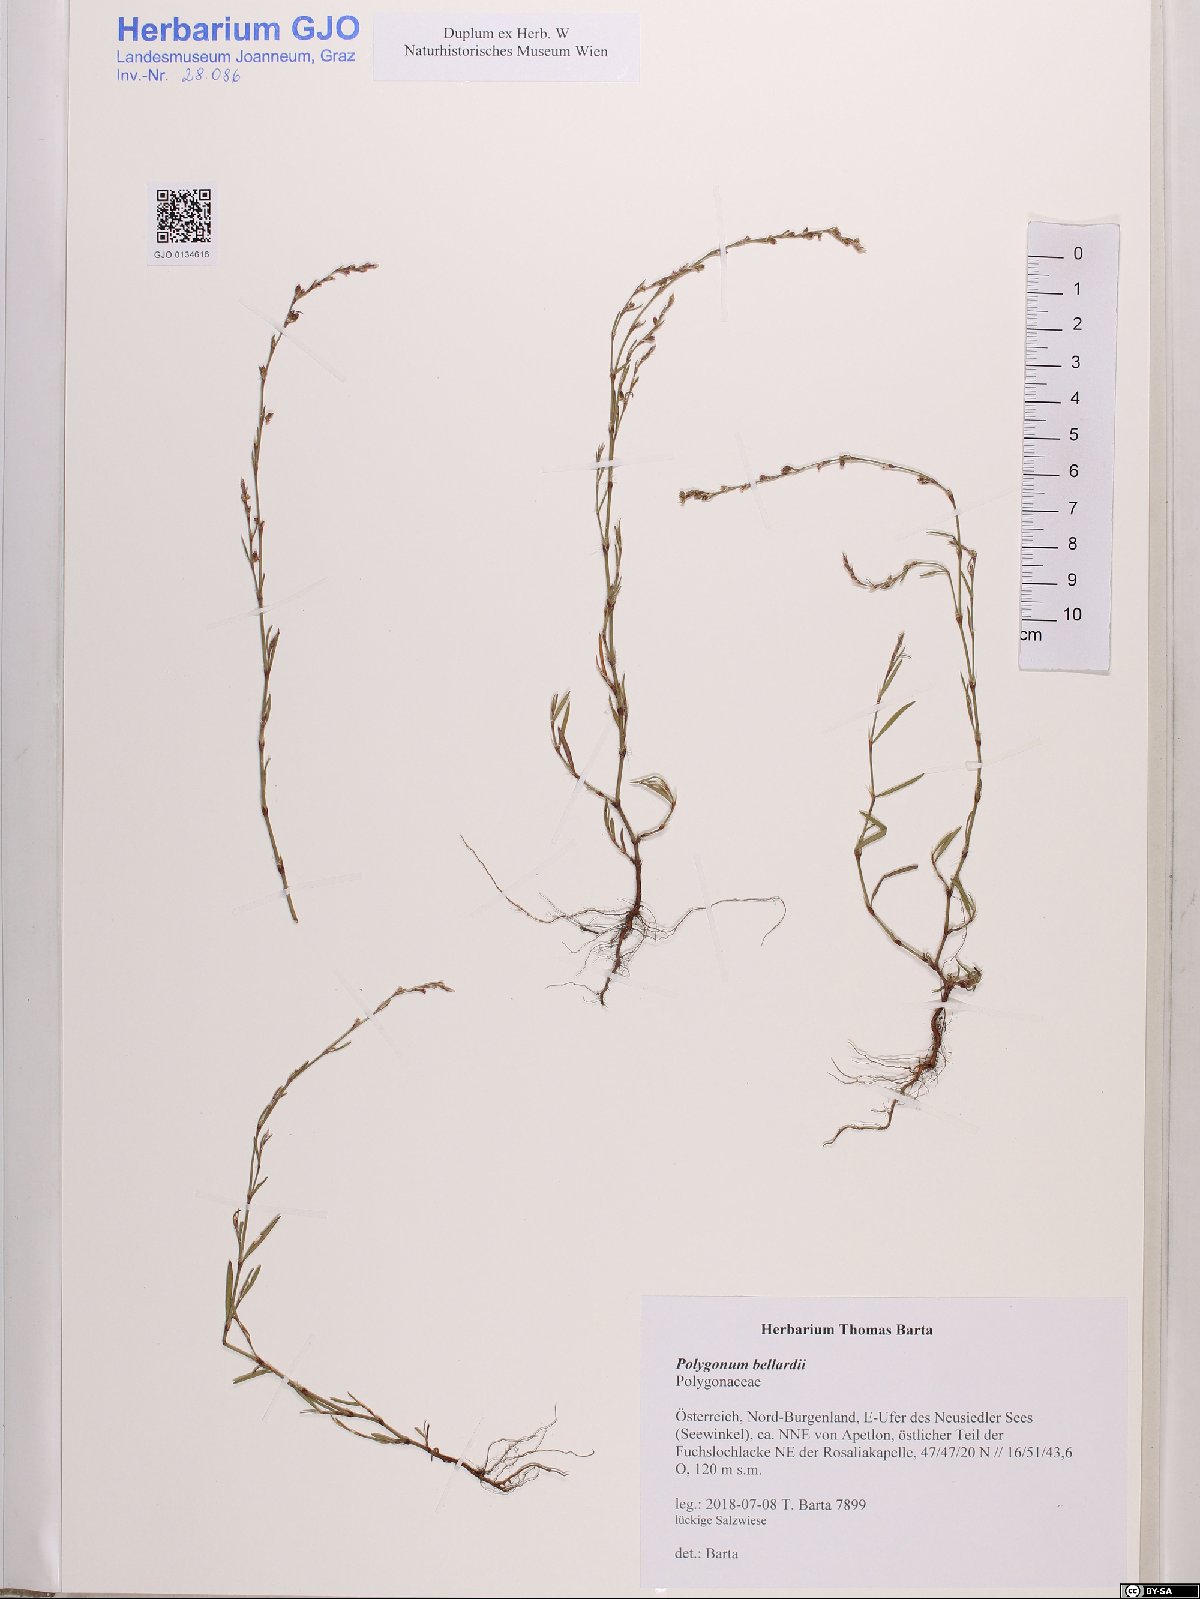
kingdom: Plantae
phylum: Tracheophyta
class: Magnoliopsida
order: Caryophyllales
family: Polygonaceae
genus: Polygonum
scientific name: Polygonum bellardii
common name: Narrowleaf knotweed
